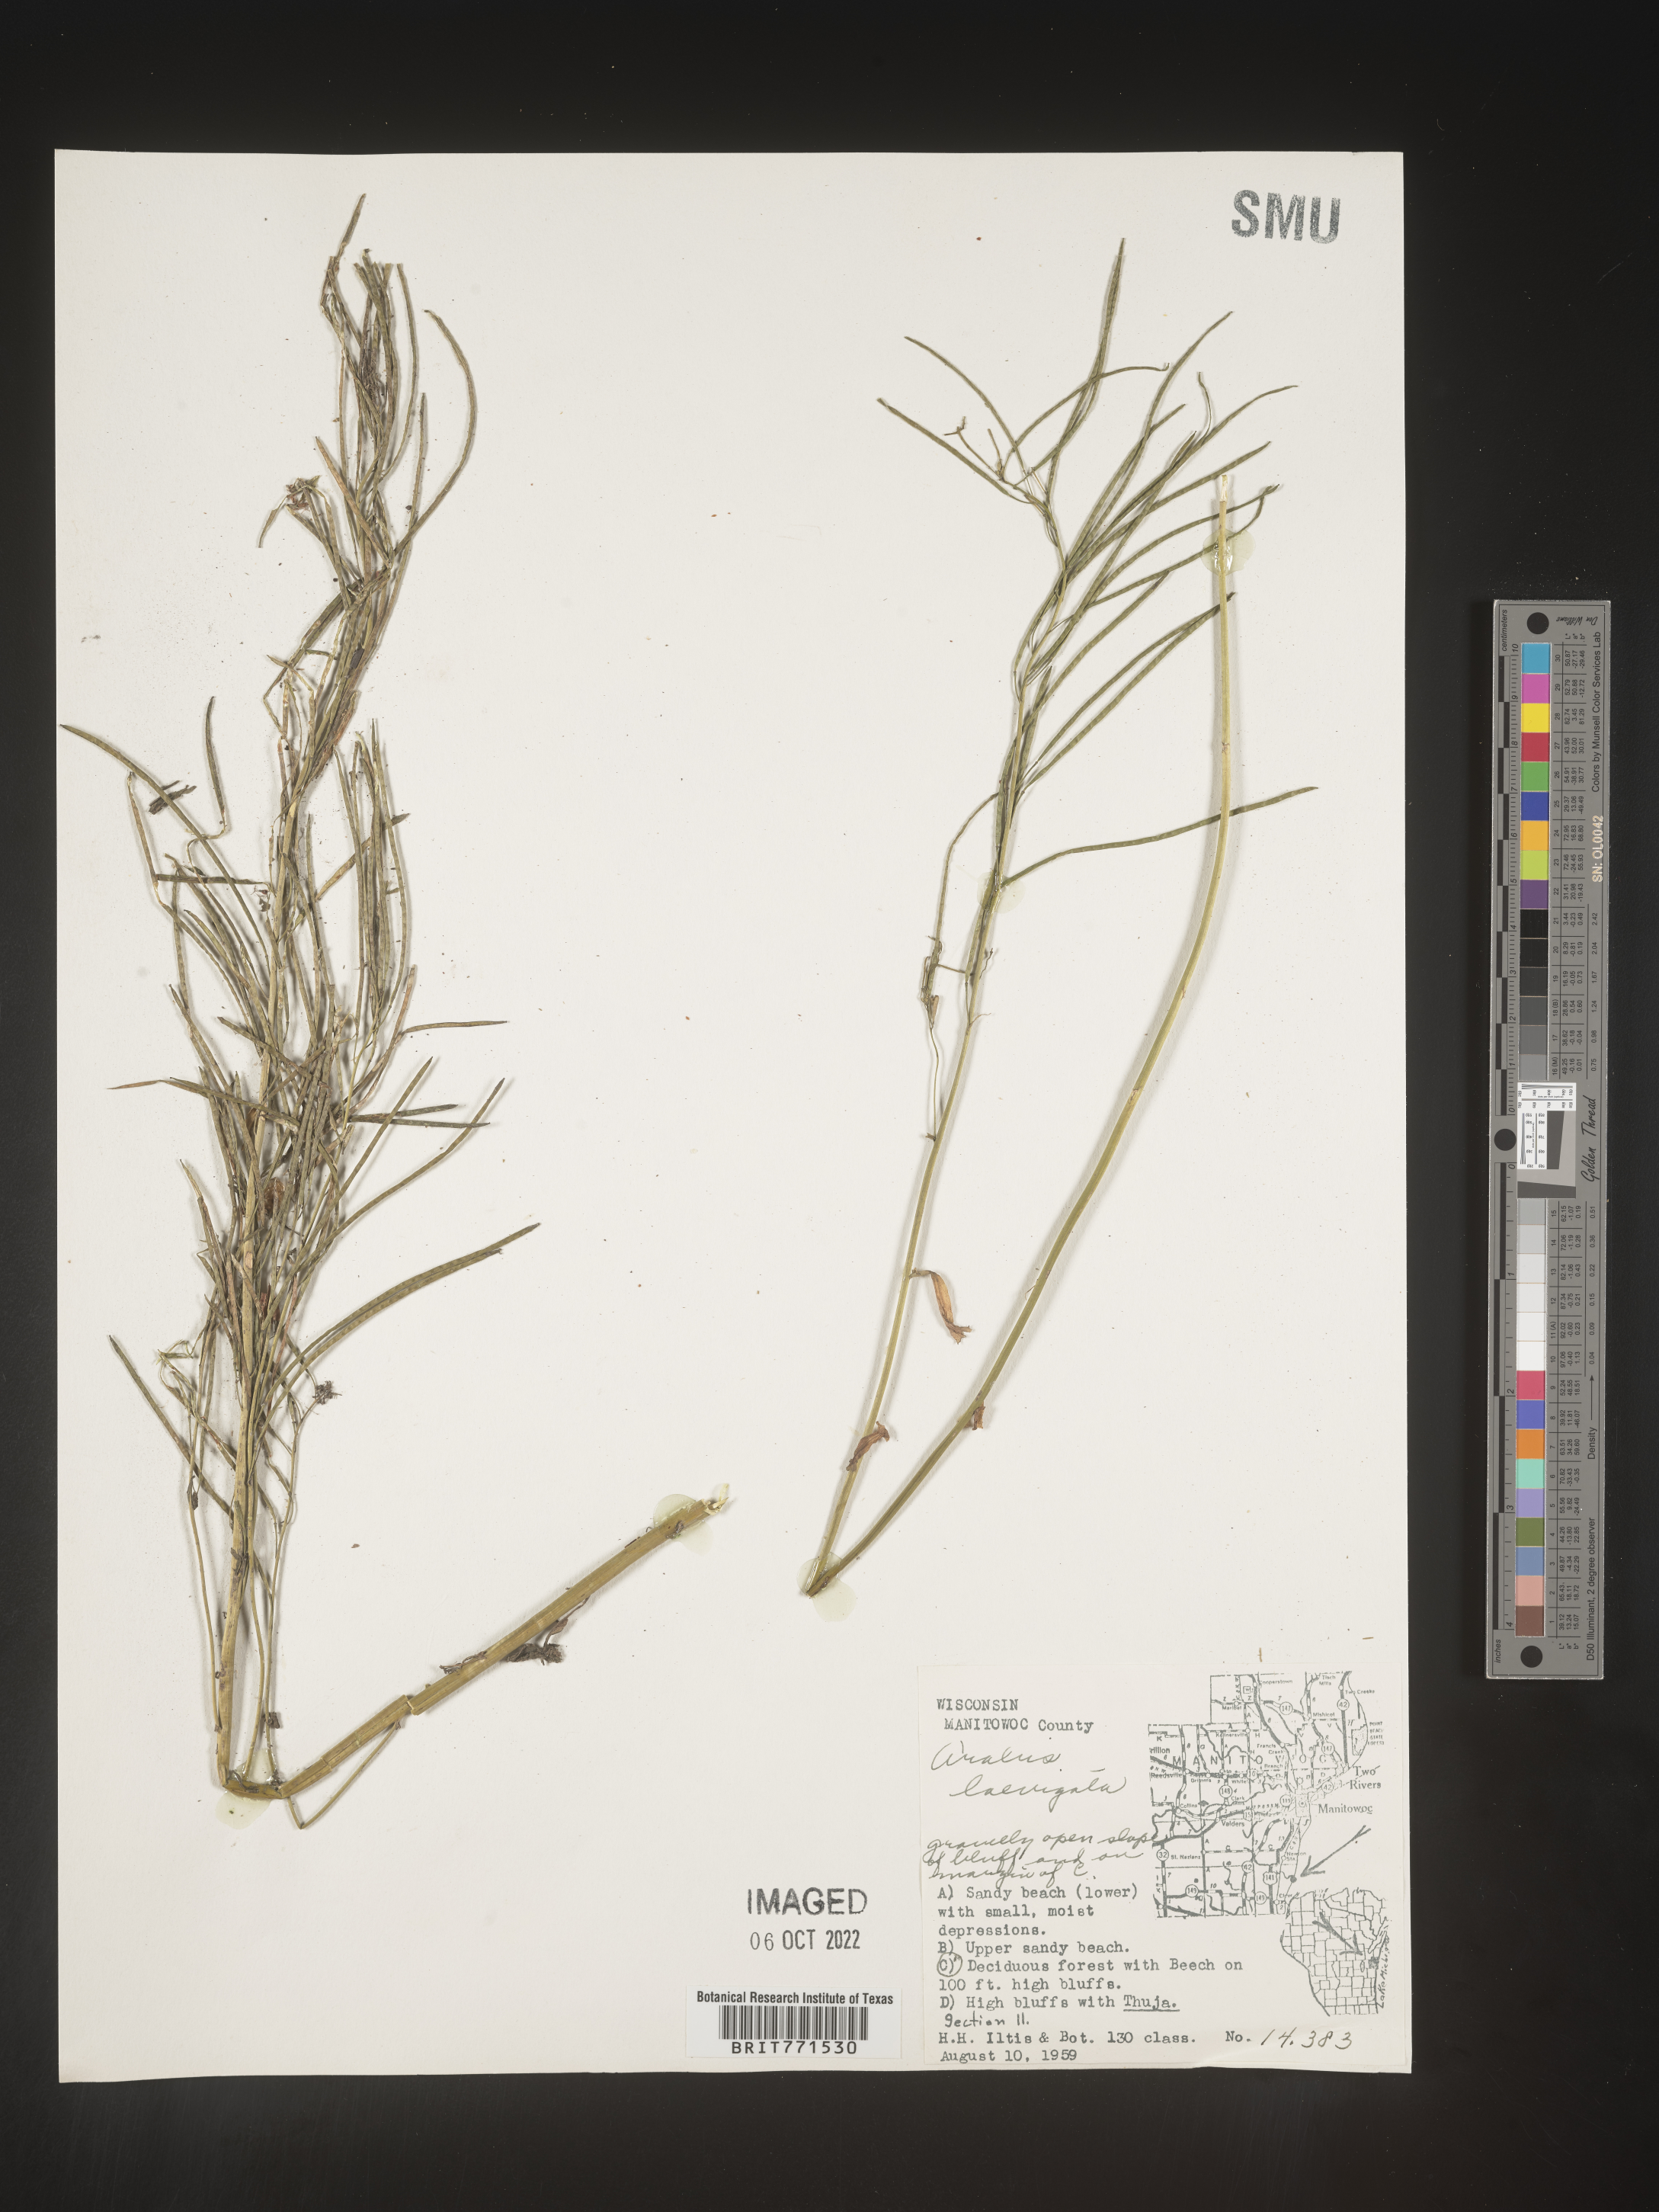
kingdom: Plantae
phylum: Tracheophyta
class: Magnoliopsida
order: Brassicales
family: Brassicaceae
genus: Arabis
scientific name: Arabis laevigata
